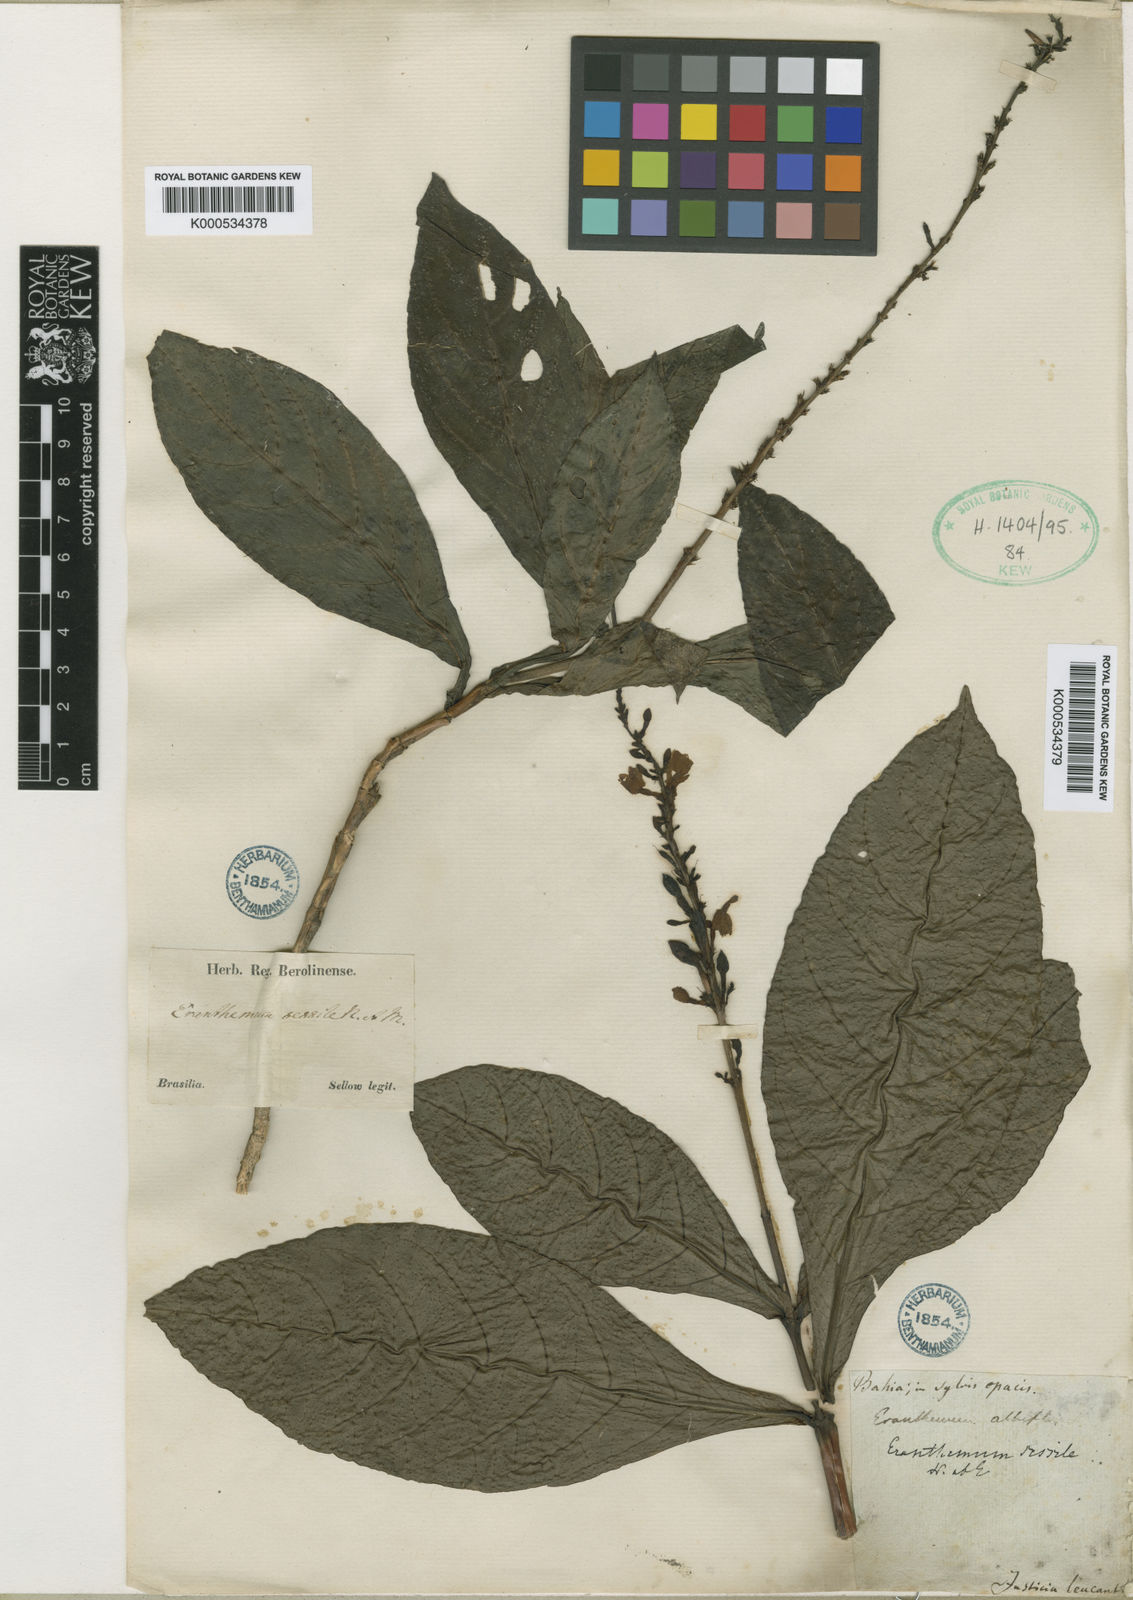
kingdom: Plantae
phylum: Tracheophyta
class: Magnoliopsida
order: Lamiales
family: Acanthaceae
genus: Pseuderanthemum
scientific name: Pseuderanthemum detruncatum
